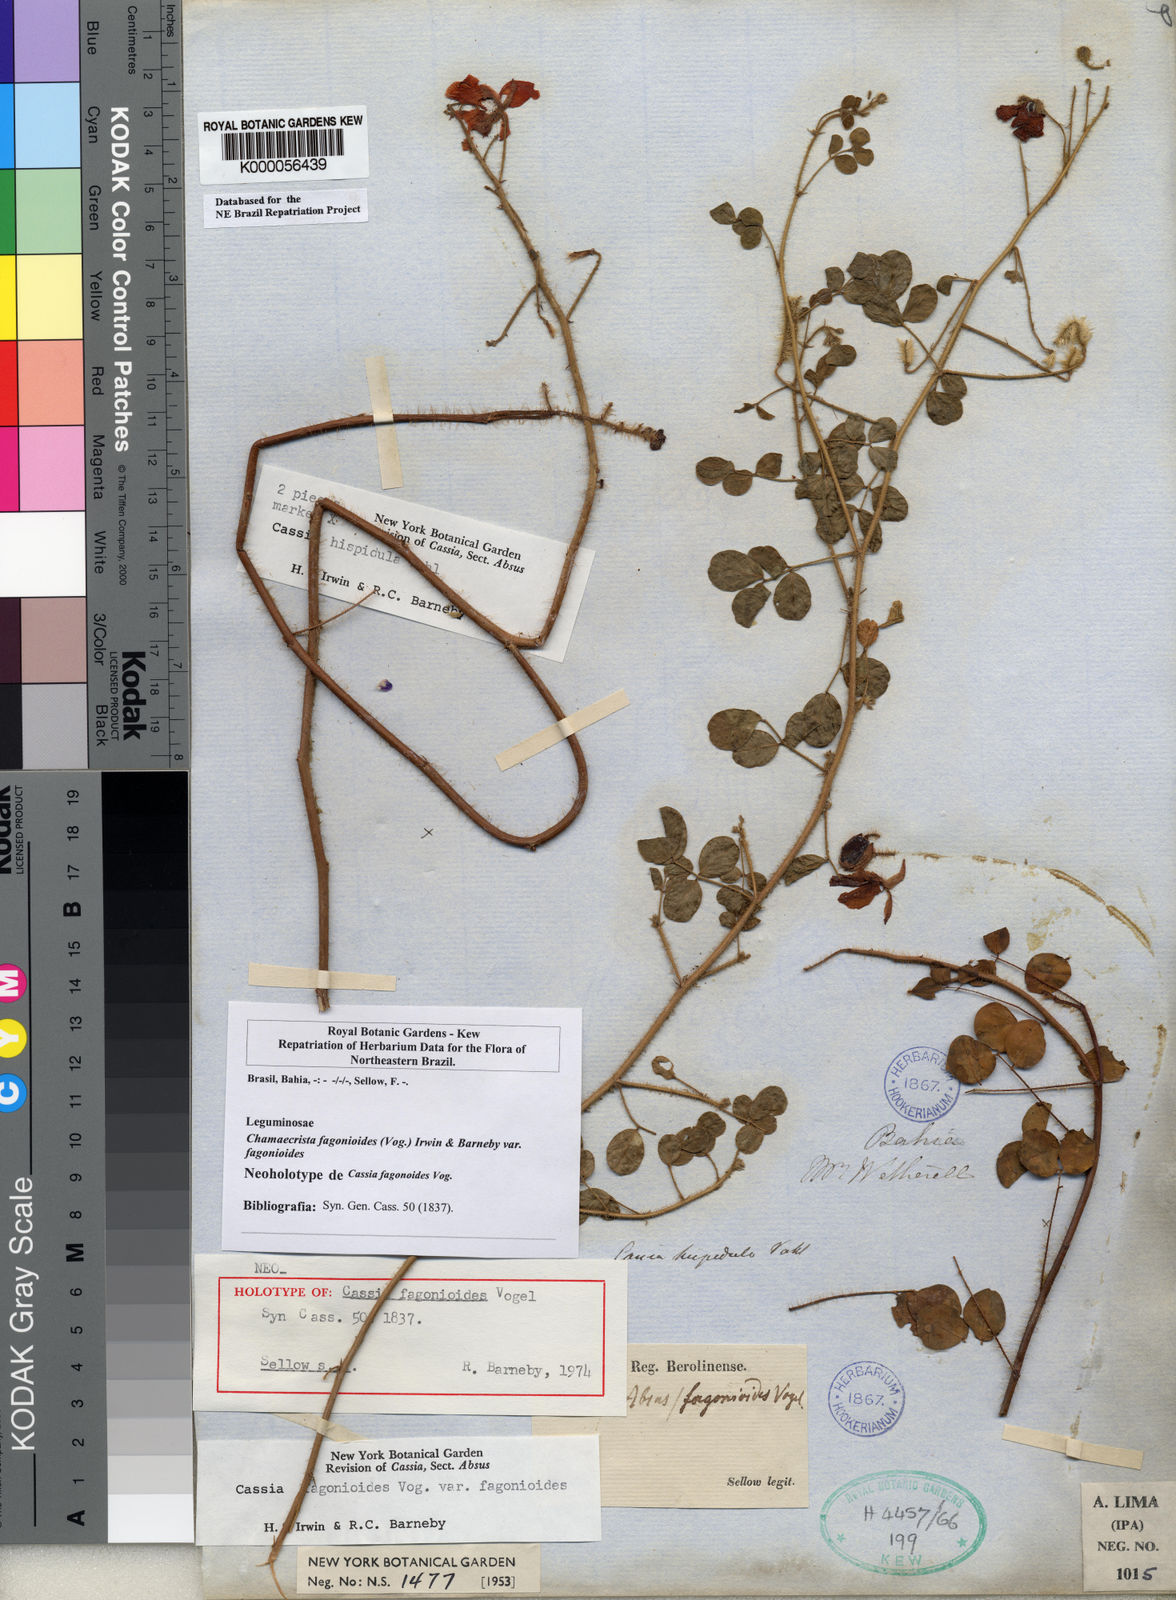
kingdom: Plantae
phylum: Tracheophyta
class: Magnoliopsida
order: Fabales
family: Fabaceae
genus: Chamaecrista
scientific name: Chamaecrista fagonioides
